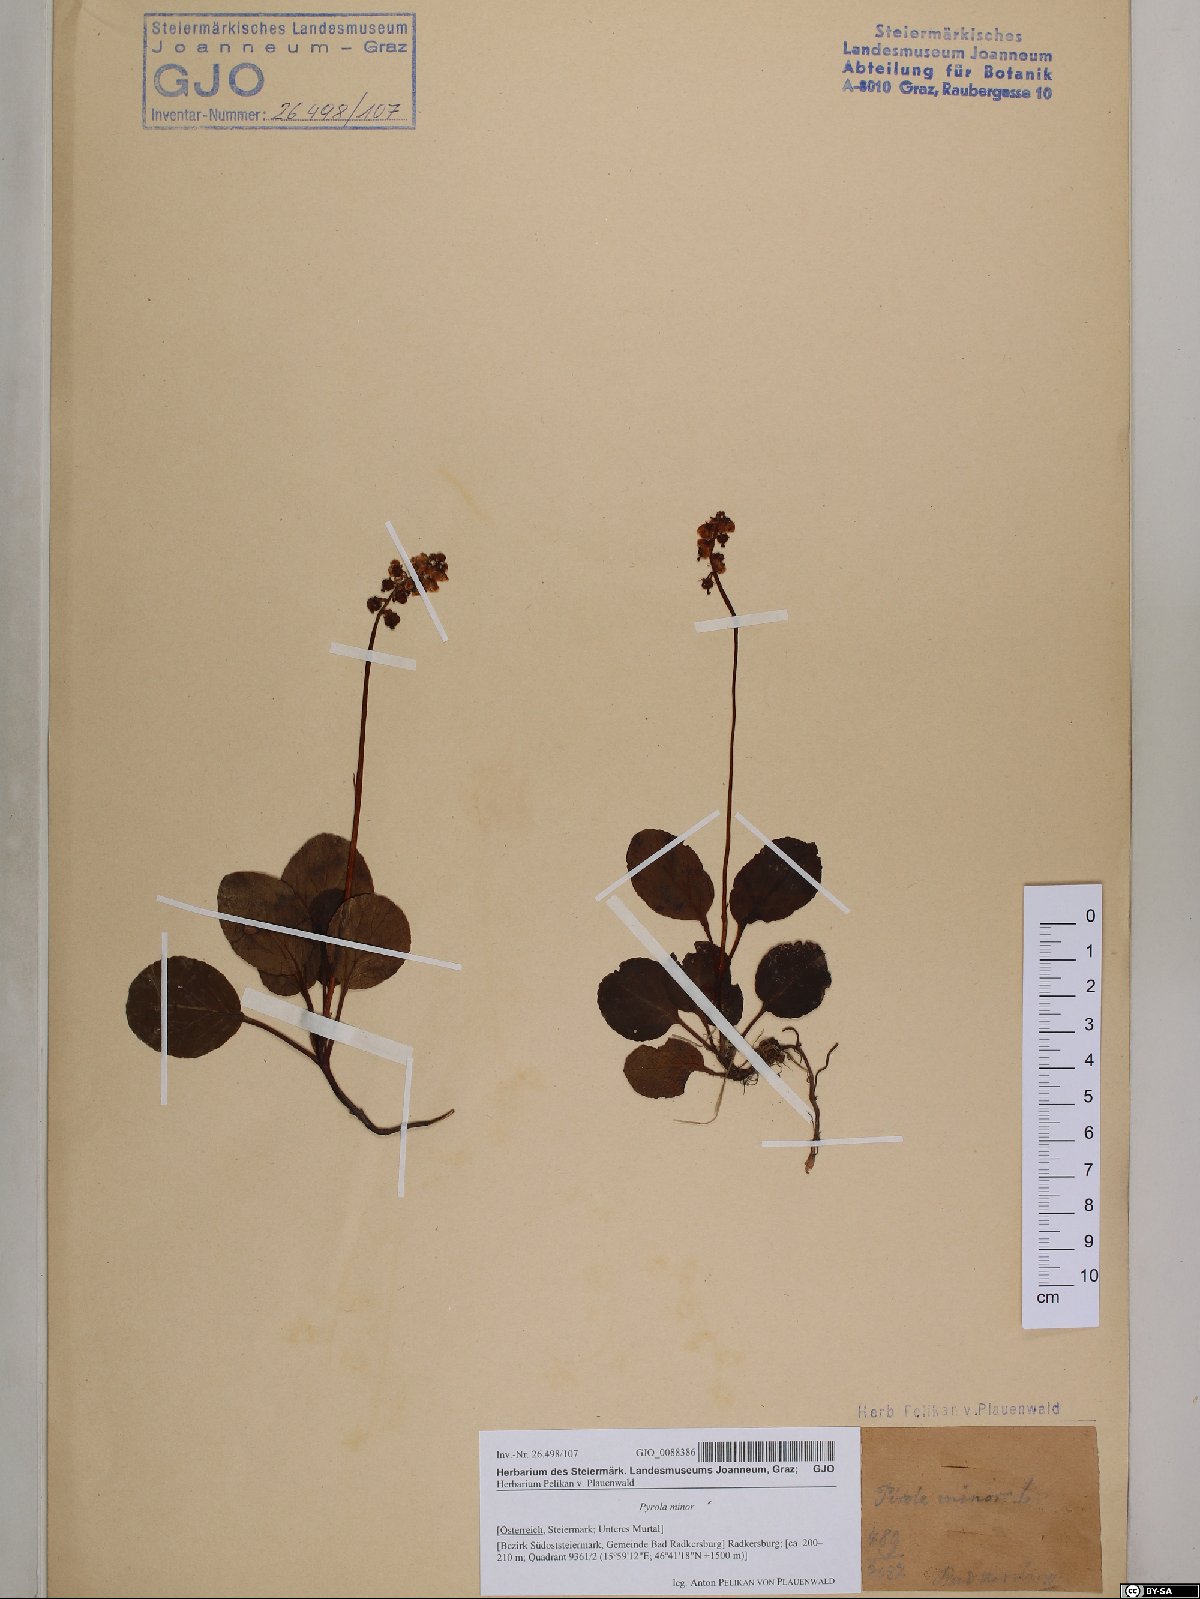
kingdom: Plantae
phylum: Tracheophyta
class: Magnoliopsida
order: Ericales
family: Ericaceae
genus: Pyrola
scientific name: Pyrola minor
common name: Common wintergreen
